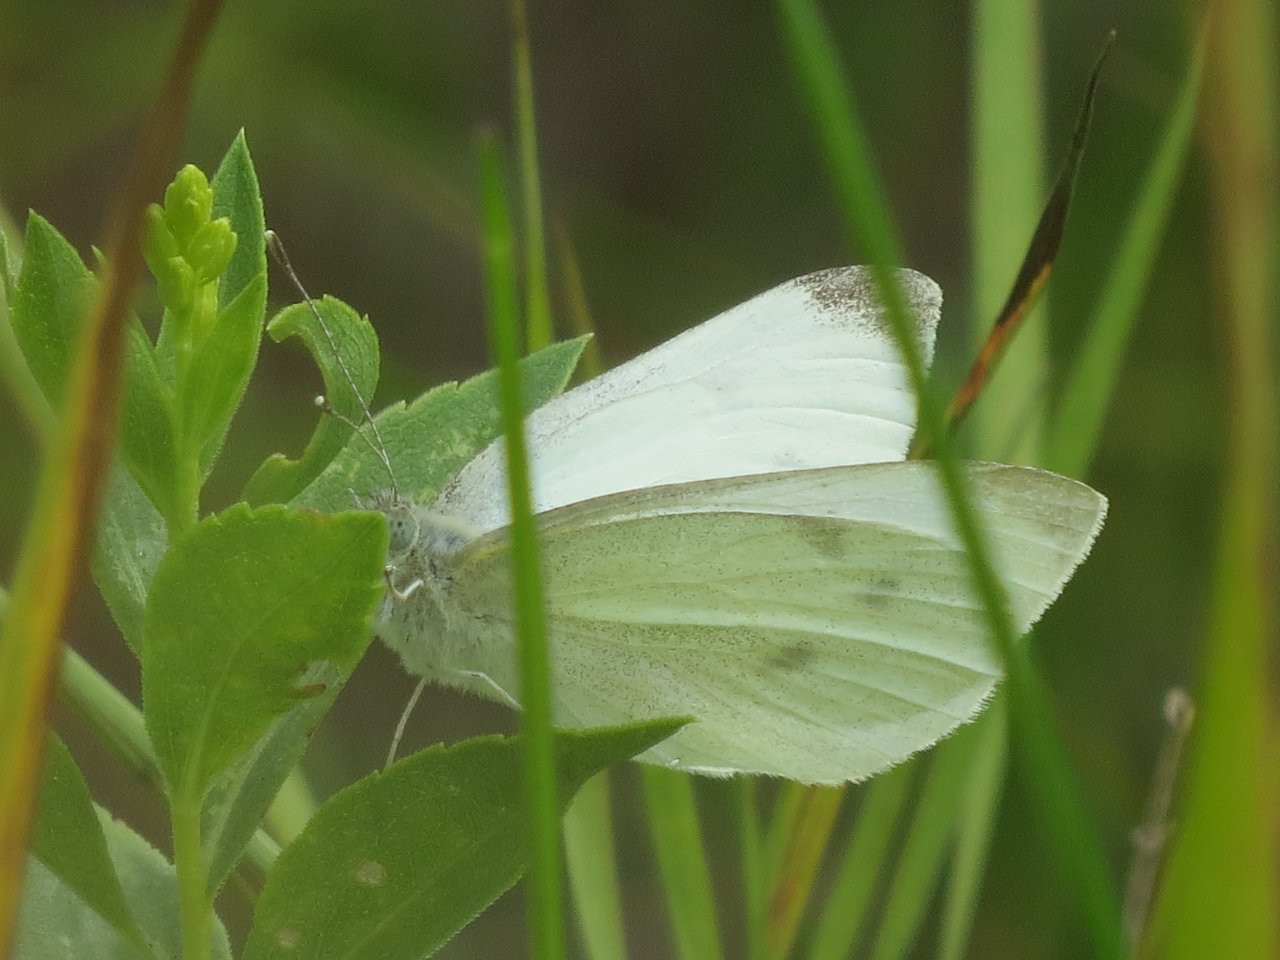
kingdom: Animalia
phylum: Arthropoda
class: Insecta
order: Lepidoptera
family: Pieridae
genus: Pieris
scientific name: Pieris rapae
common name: Cabbage White
